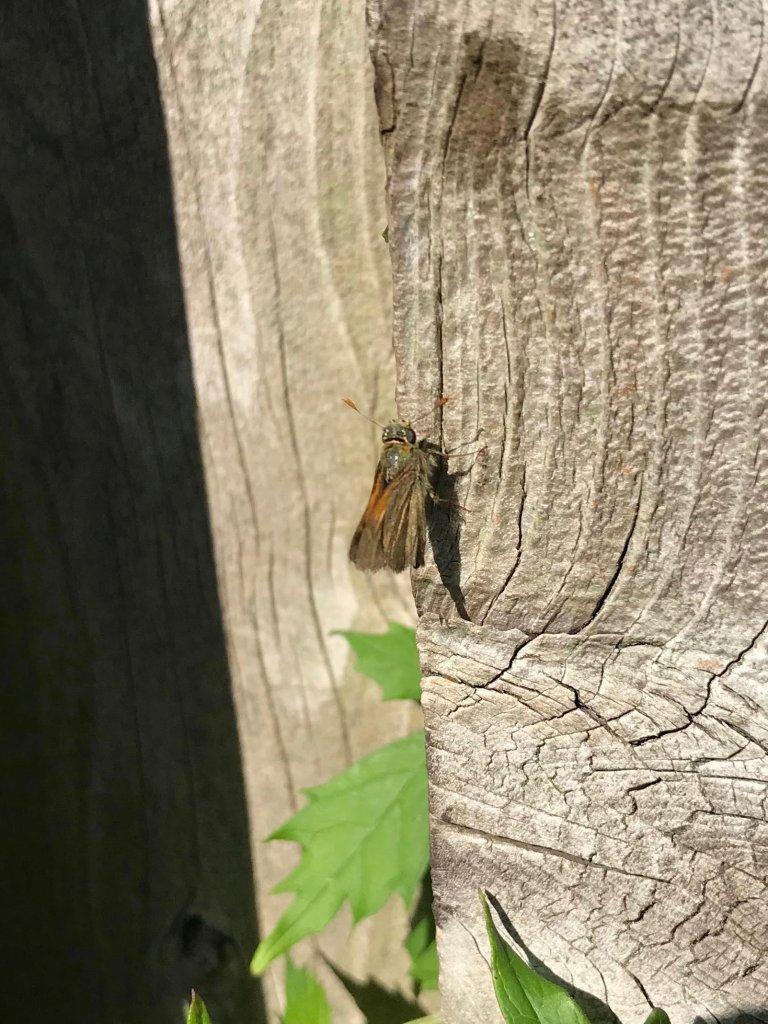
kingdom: Animalia
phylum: Arthropoda
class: Insecta
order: Lepidoptera
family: Hesperiidae
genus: Polites
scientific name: Polites themistocles
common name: Tawny-edged Skipper
